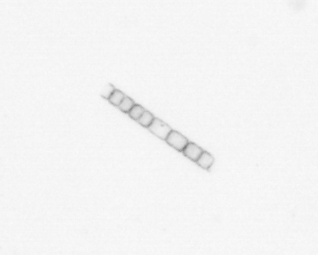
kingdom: Chromista
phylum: Ochrophyta
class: Bacillariophyceae
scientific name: Bacillariophyceae
